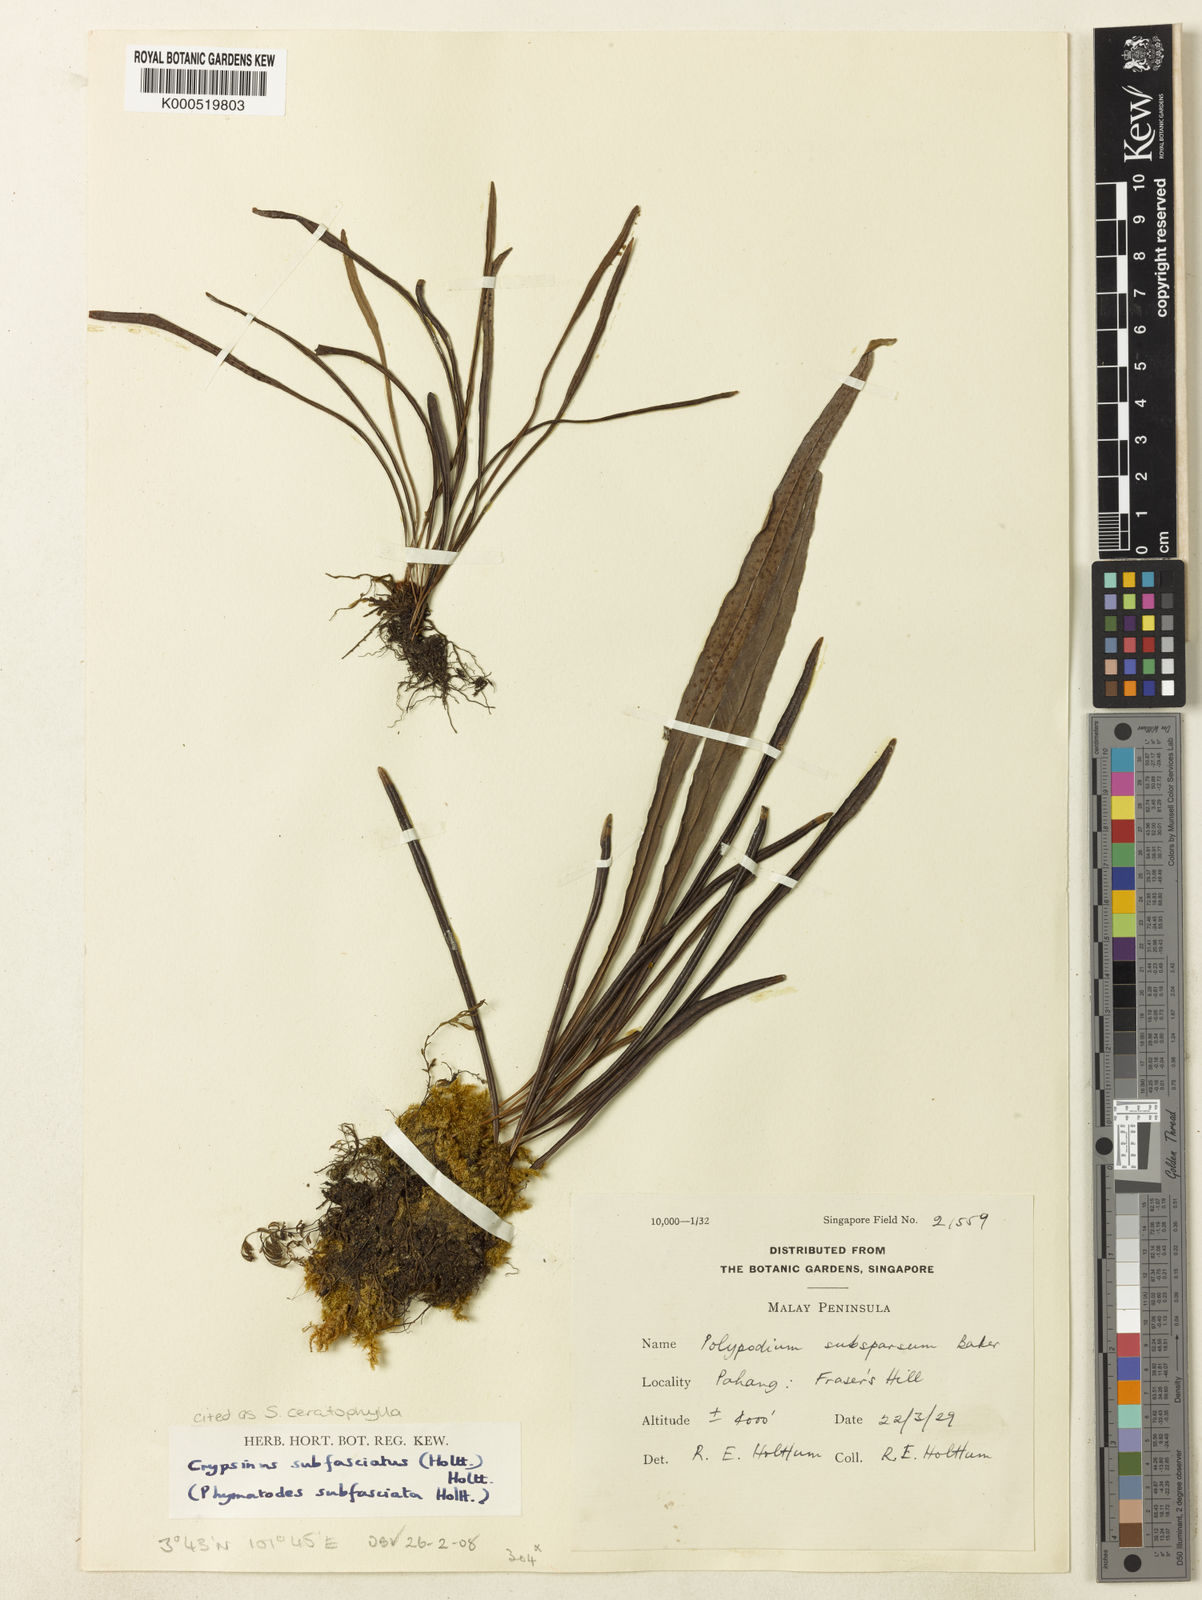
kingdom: Plantae
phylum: Tracheophyta
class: Polypodiopsida
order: Polypodiales
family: Polypodiaceae
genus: Selliguea
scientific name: Selliguea ceratophylla
